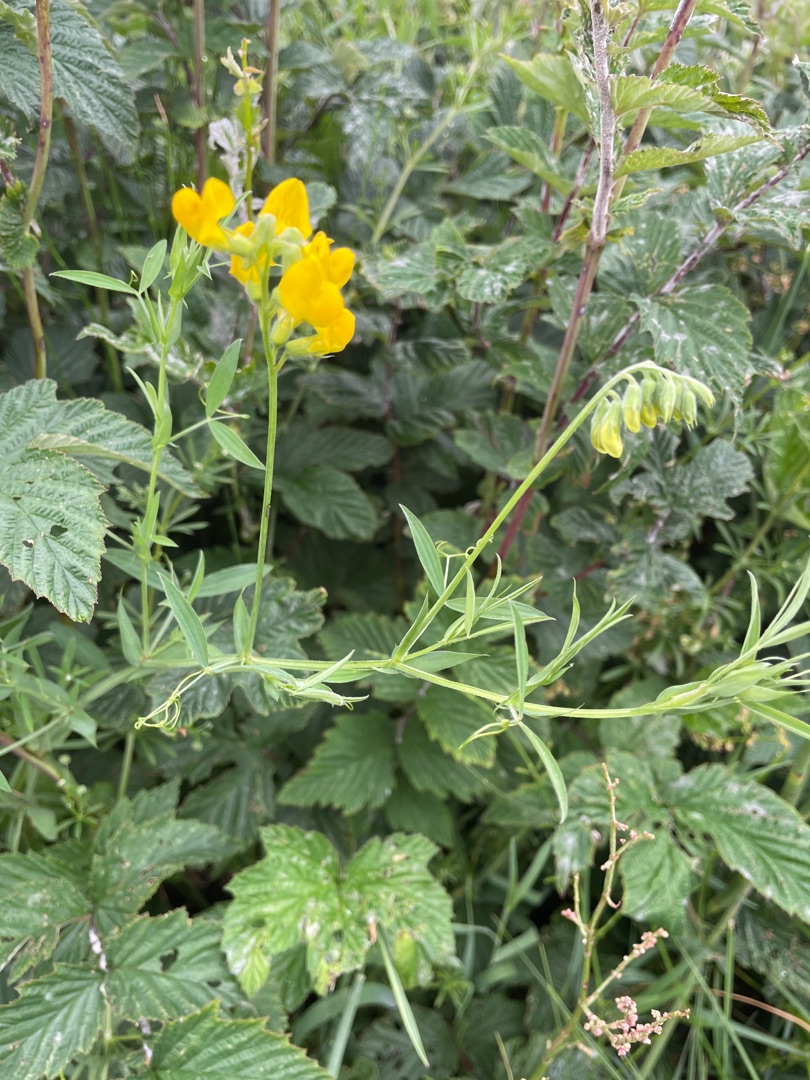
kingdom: Plantae
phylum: Tracheophyta
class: Magnoliopsida
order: Fabales
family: Fabaceae
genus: Lathyrus
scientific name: Lathyrus pratensis
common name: Gul fladbælg
